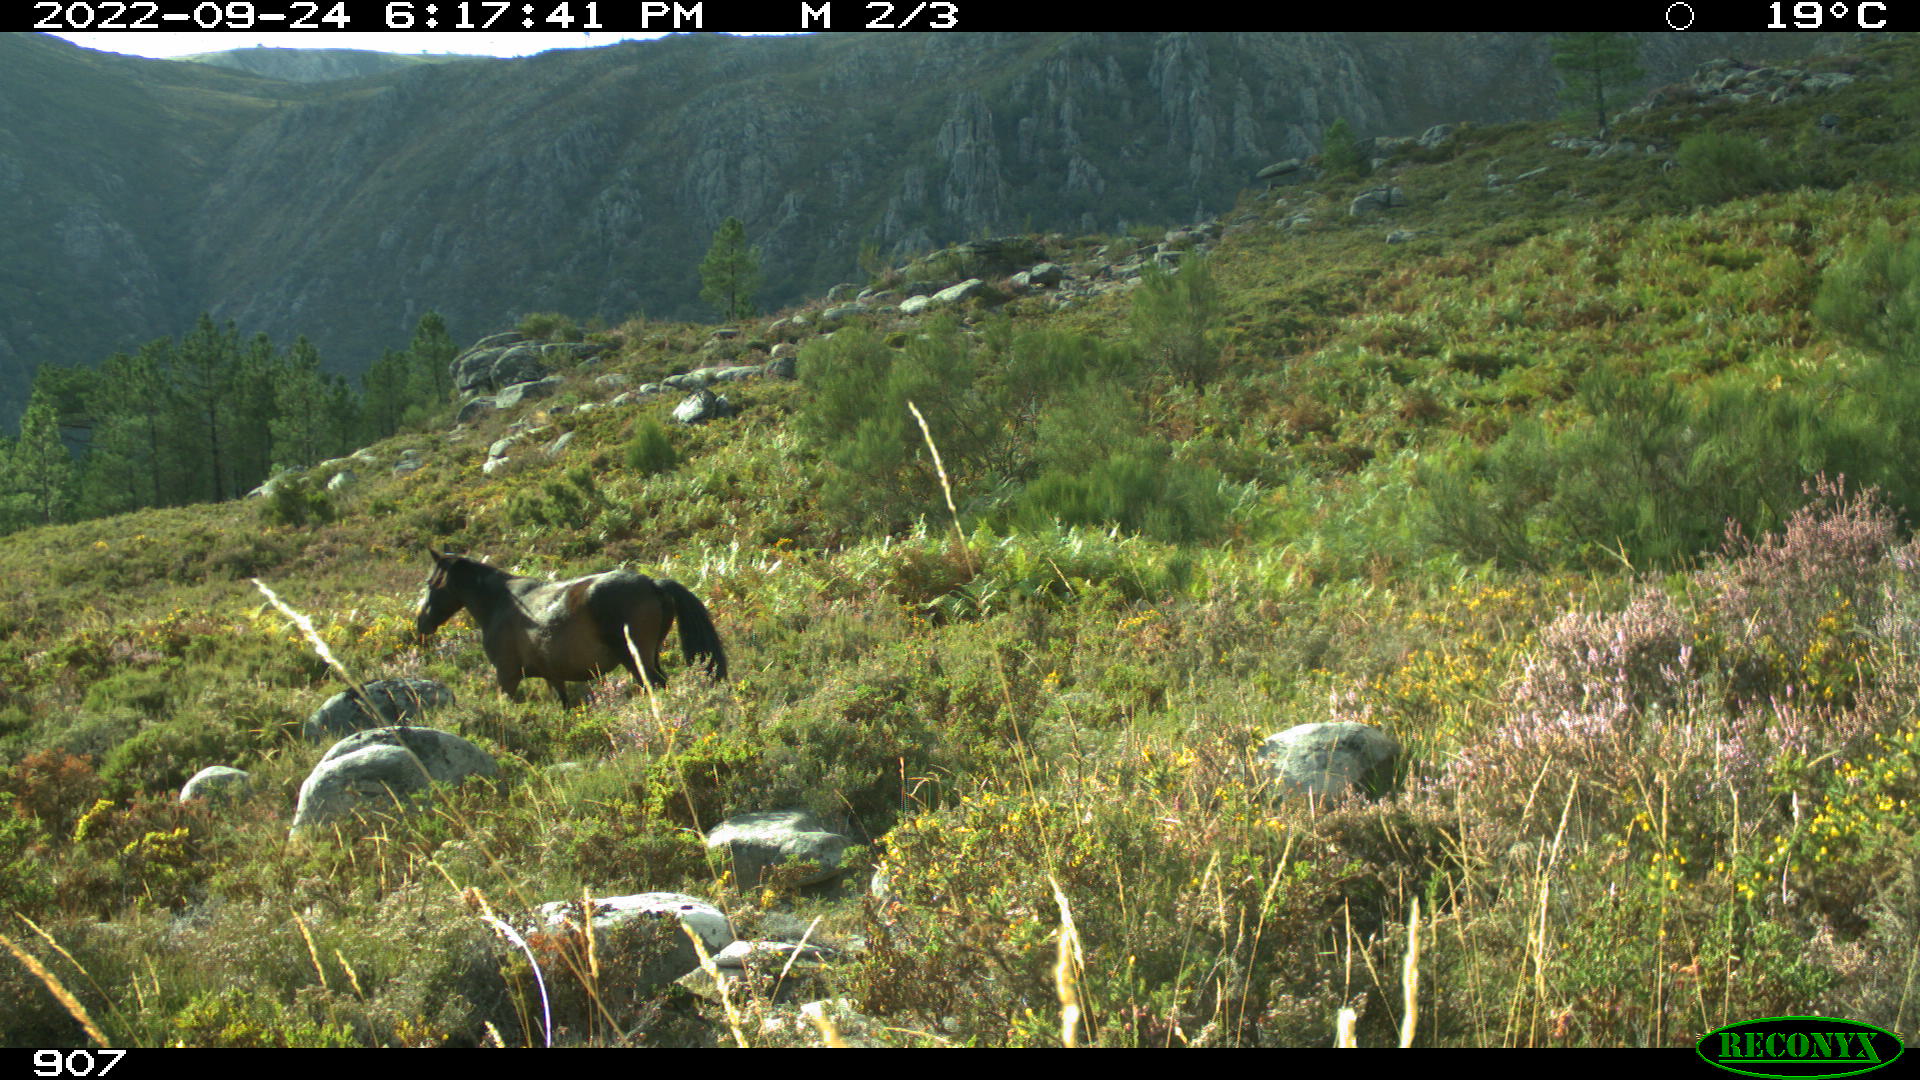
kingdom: Animalia
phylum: Chordata
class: Mammalia
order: Perissodactyla
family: Equidae
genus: Equus
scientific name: Equus caballus
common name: Horse
